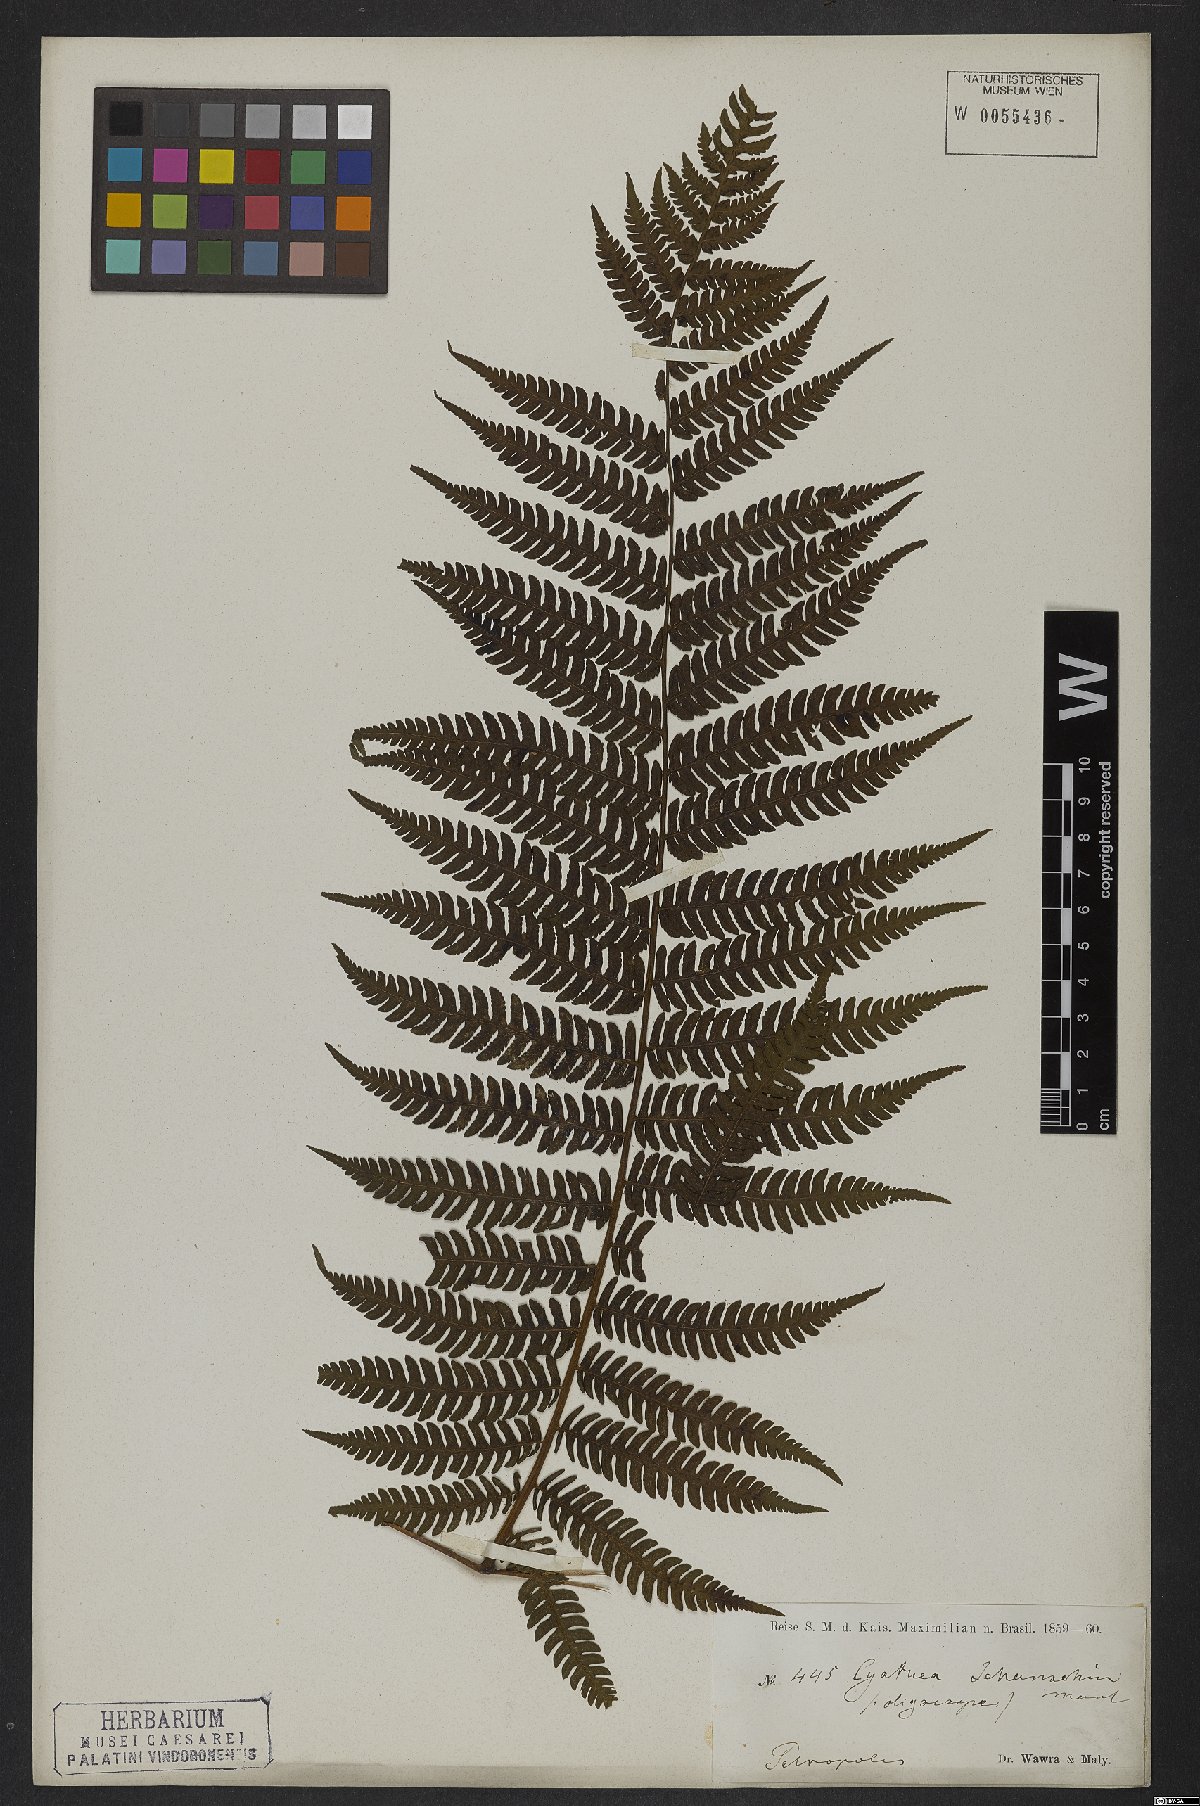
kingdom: Plantae
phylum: Tracheophyta
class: Polypodiopsida
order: Cyatheales
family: Cyatheaceae
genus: Cyathea
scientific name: Cyathea delgadii
